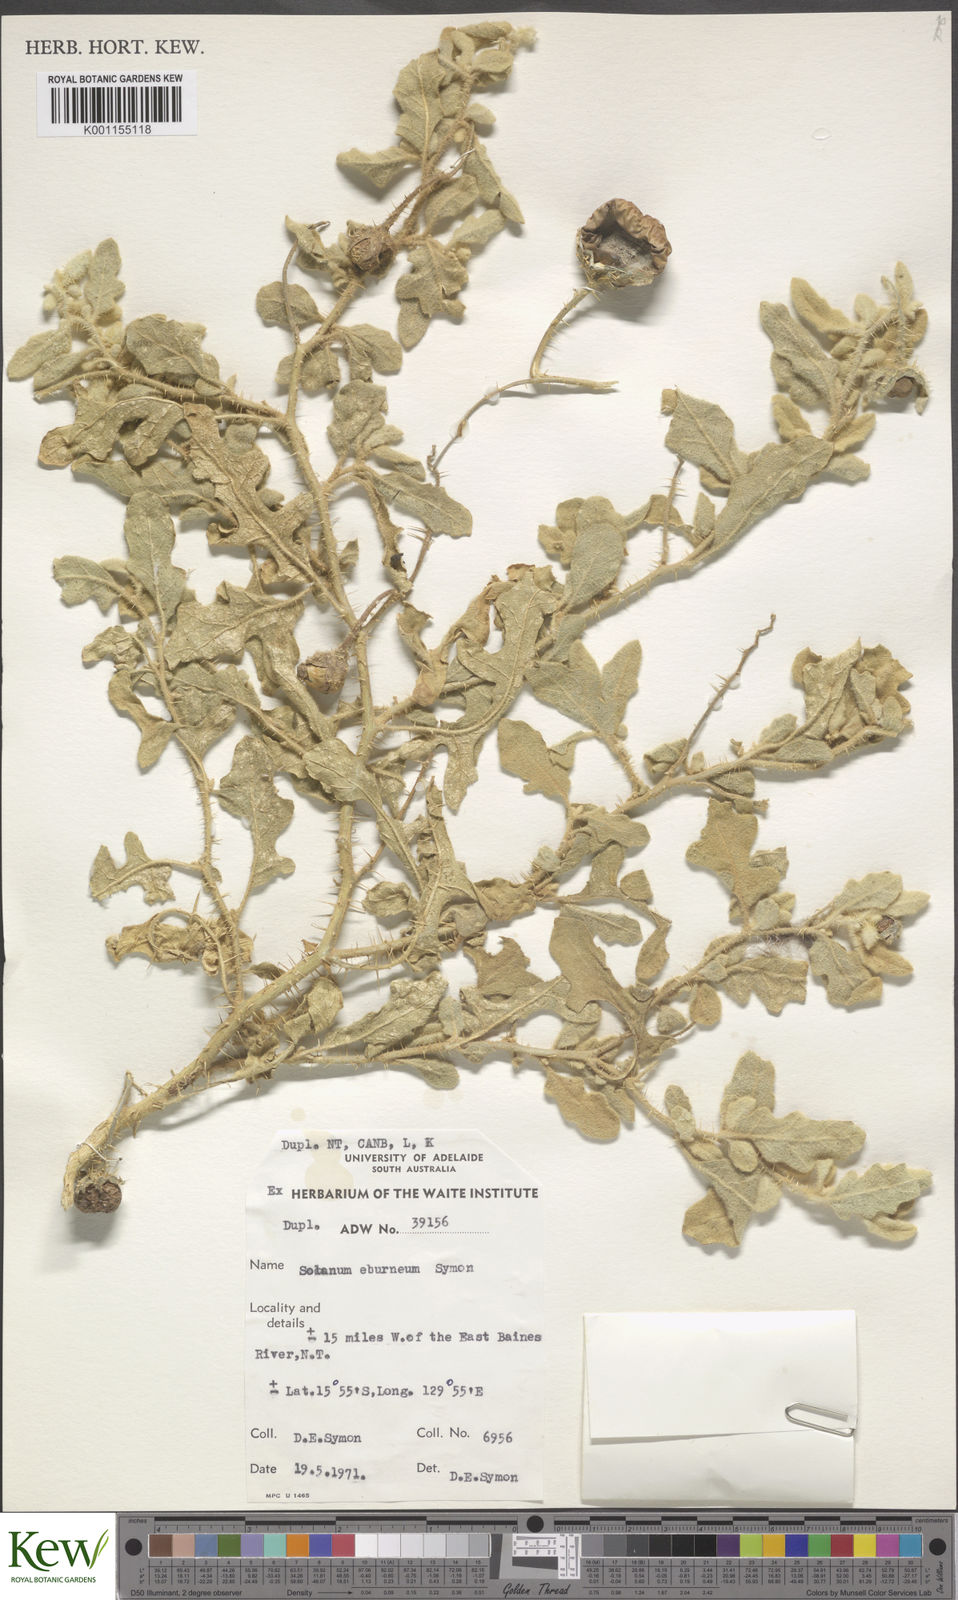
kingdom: Plantae
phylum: Tracheophyta
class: Magnoliopsida
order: Solanales
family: Solanaceae
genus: Solanum
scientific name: Solanum eburneum
